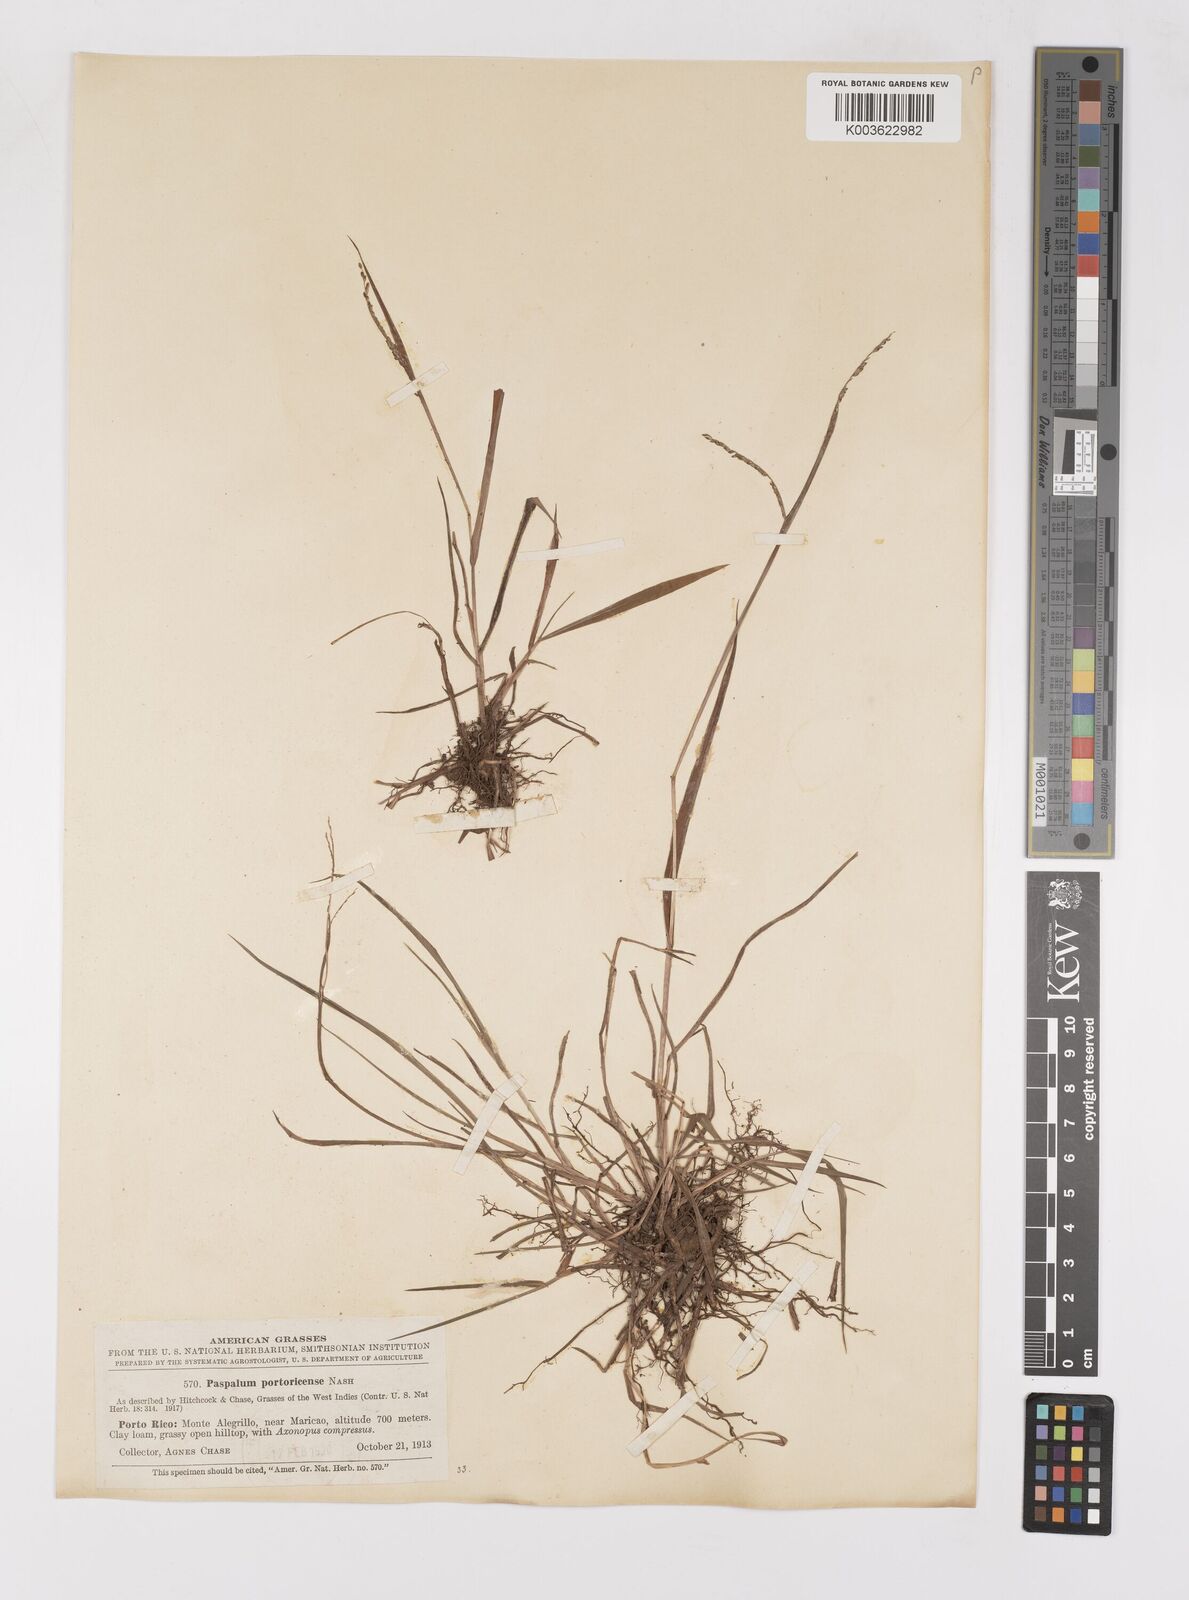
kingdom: Plantae
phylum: Tracheophyta
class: Liliopsida
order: Poales
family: Poaceae
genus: Paspalum
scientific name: Paspalum molle
